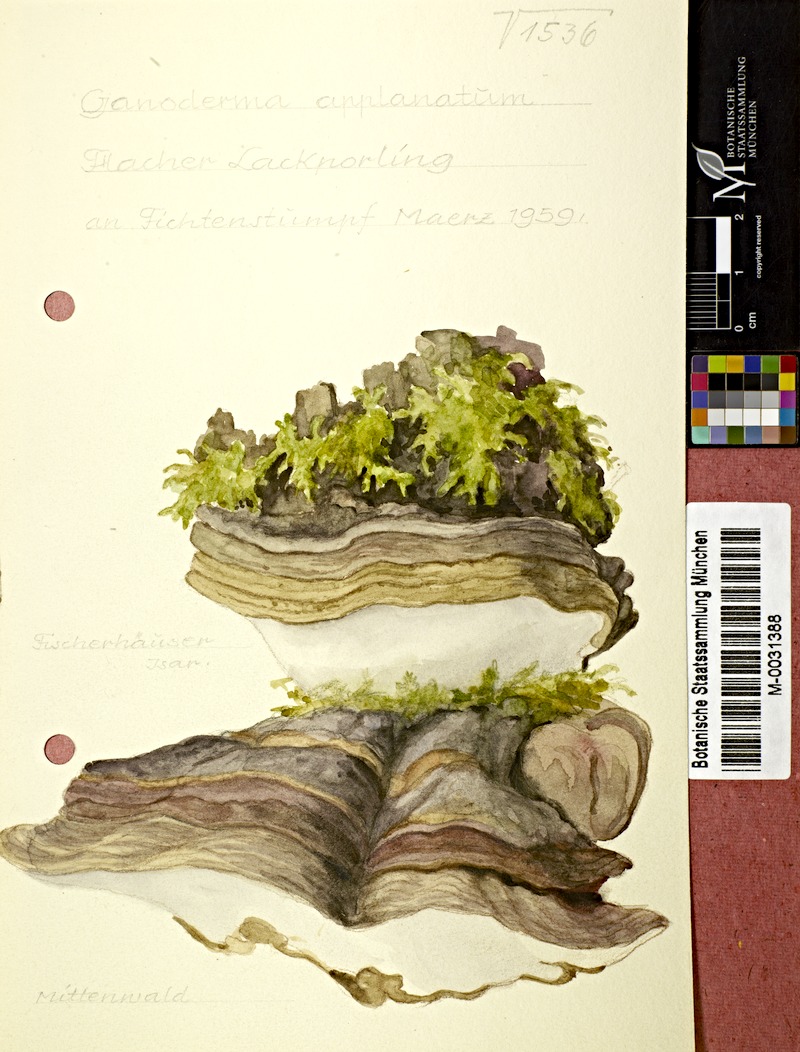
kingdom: Fungi
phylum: Basidiomycota
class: Agaricomycetes
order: Polyporales
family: Polyporaceae
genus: Ganoderma
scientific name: Ganoderma applanatum
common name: Artist's bracket
